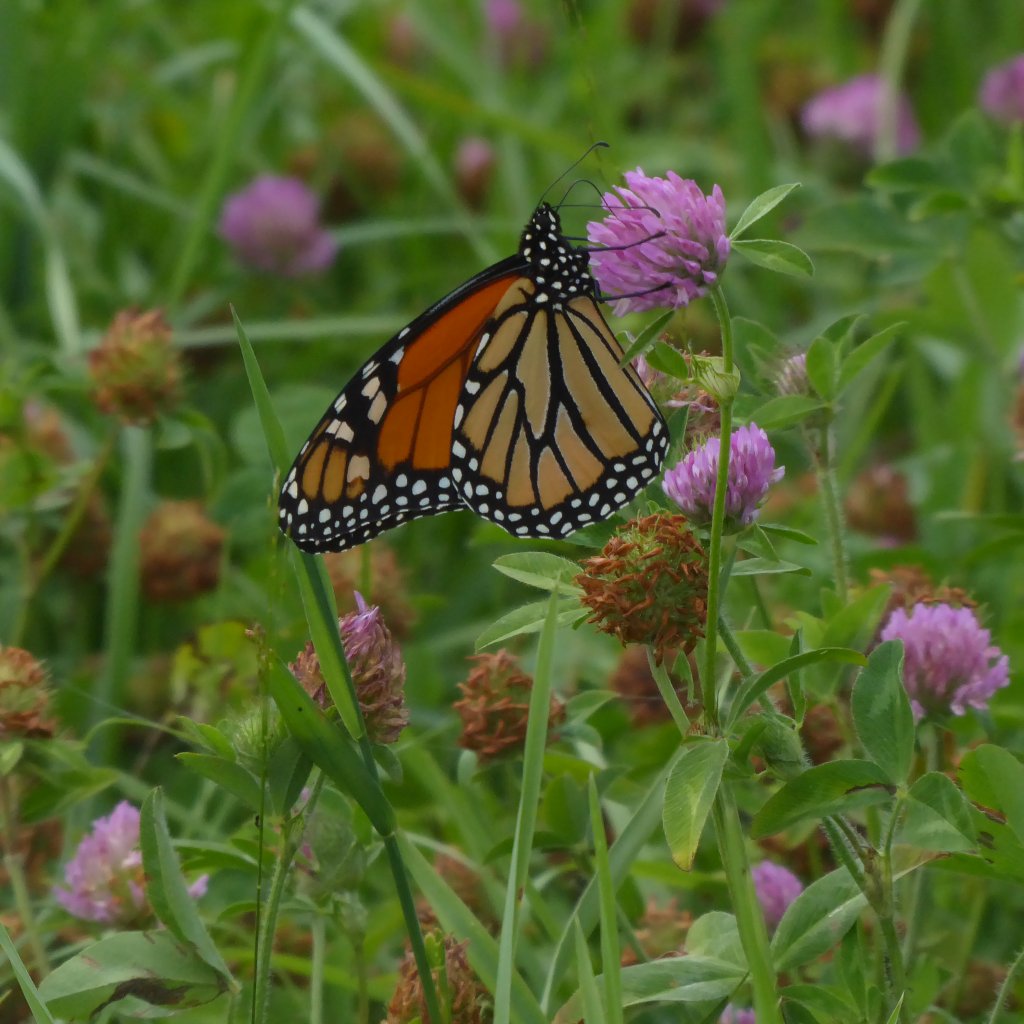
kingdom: Animalia
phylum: Arthropoda
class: Insecta
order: Lepidoptera
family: Nymphalidae
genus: Danaus
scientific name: Danaus plexippus
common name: Monarch
